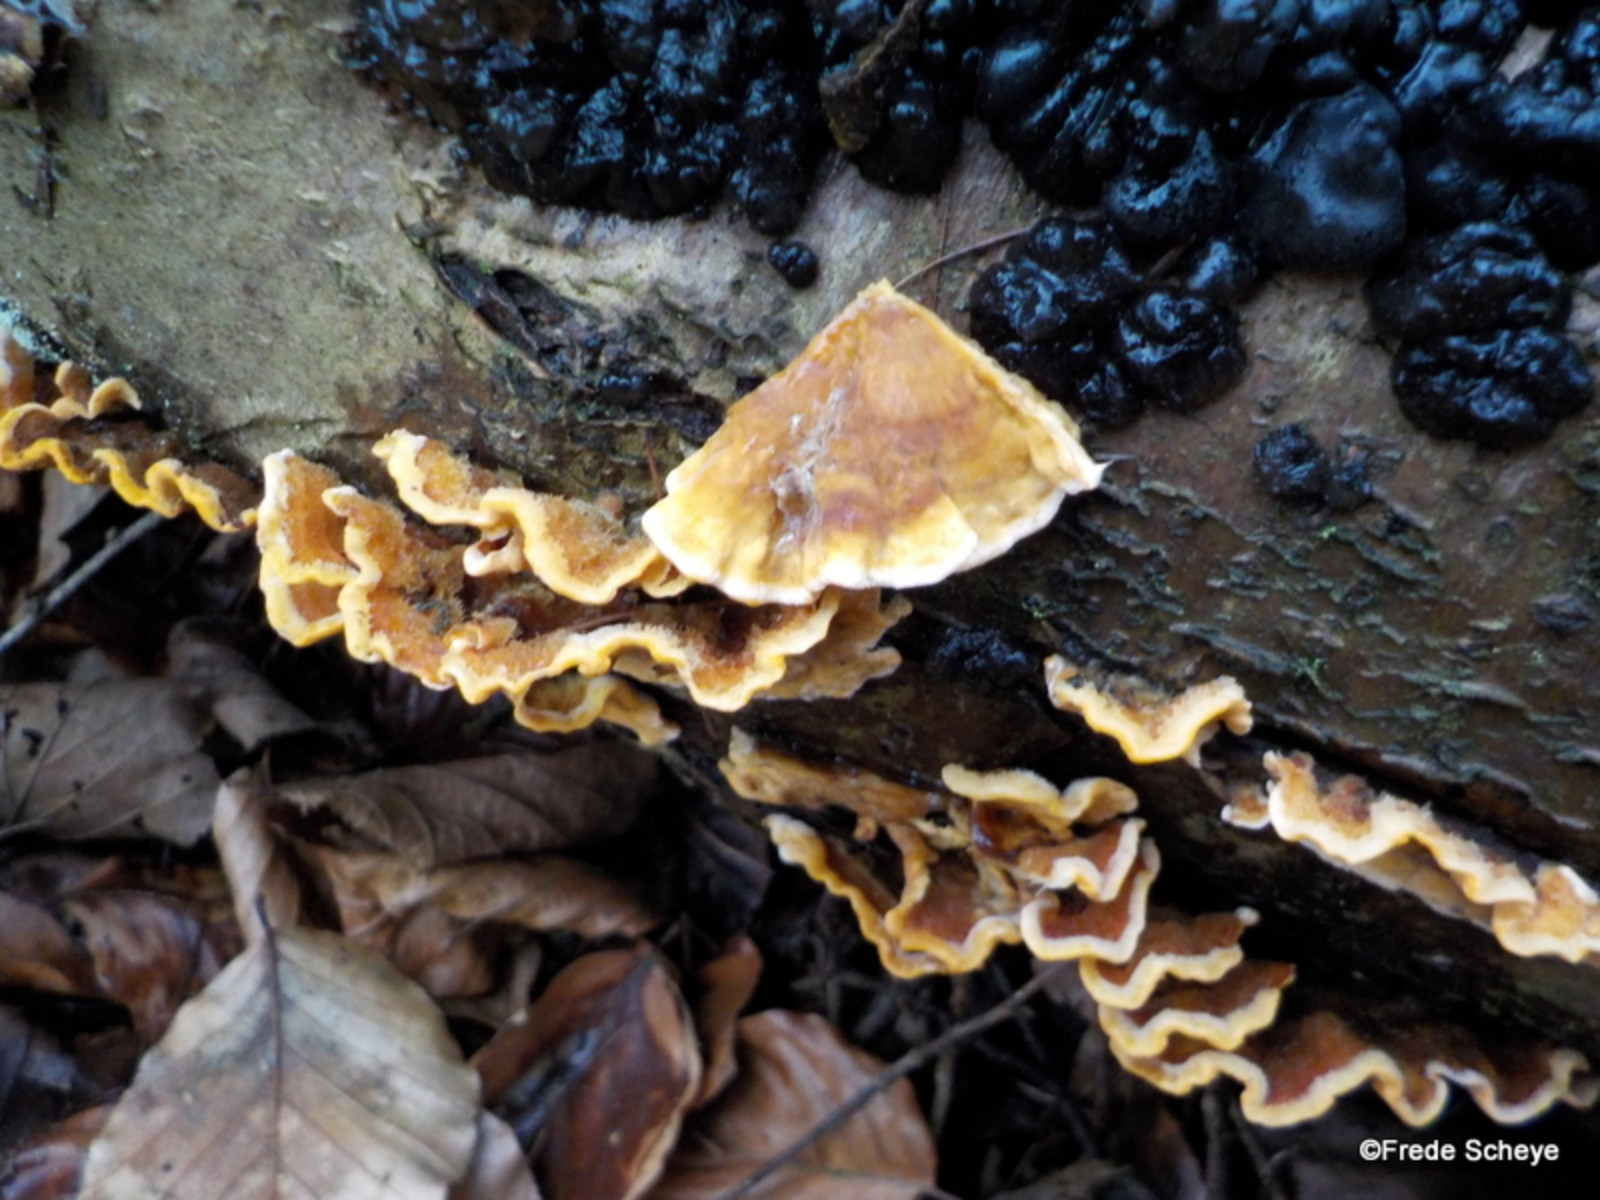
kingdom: Fungi
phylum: Basidiomycota
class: Agaricomycetes
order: Russulales
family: Stereaceae
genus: Stereum
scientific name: Stereum hirsutum
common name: håret lædersvamp
